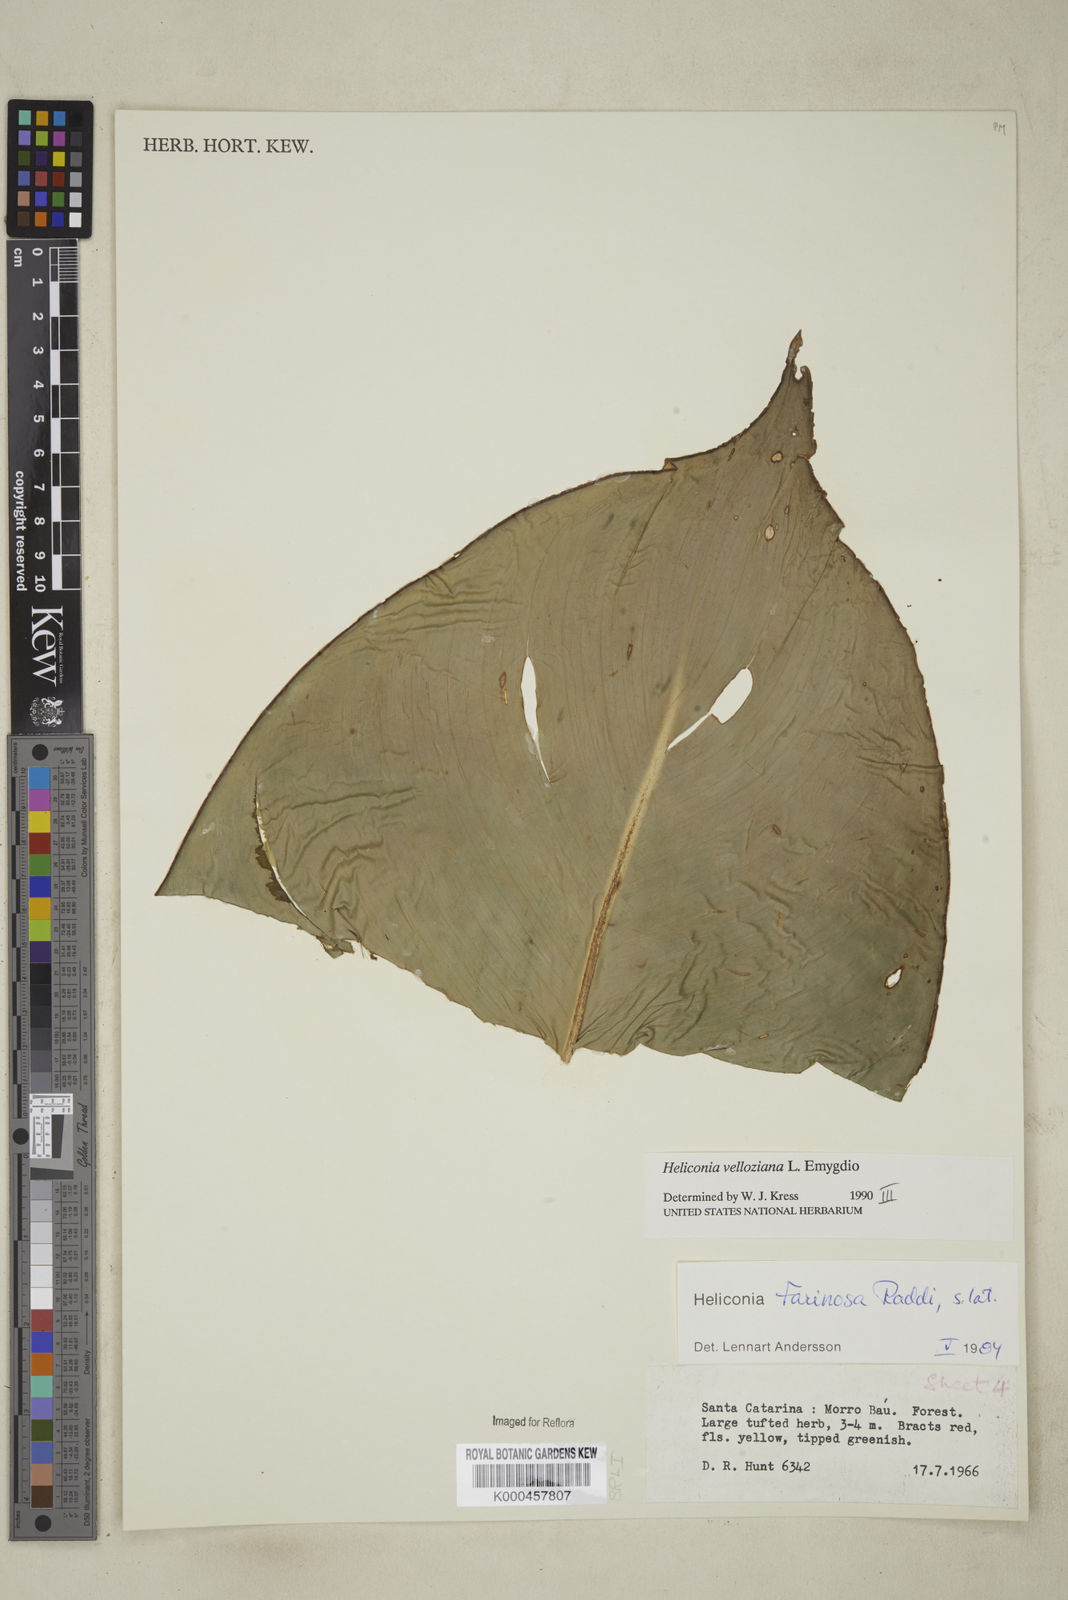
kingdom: Plantae
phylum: Tracheophyta
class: Liliopsida
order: Zingiberales
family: Heliconiaceae
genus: Heliconia
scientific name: Heliconia farinosa
